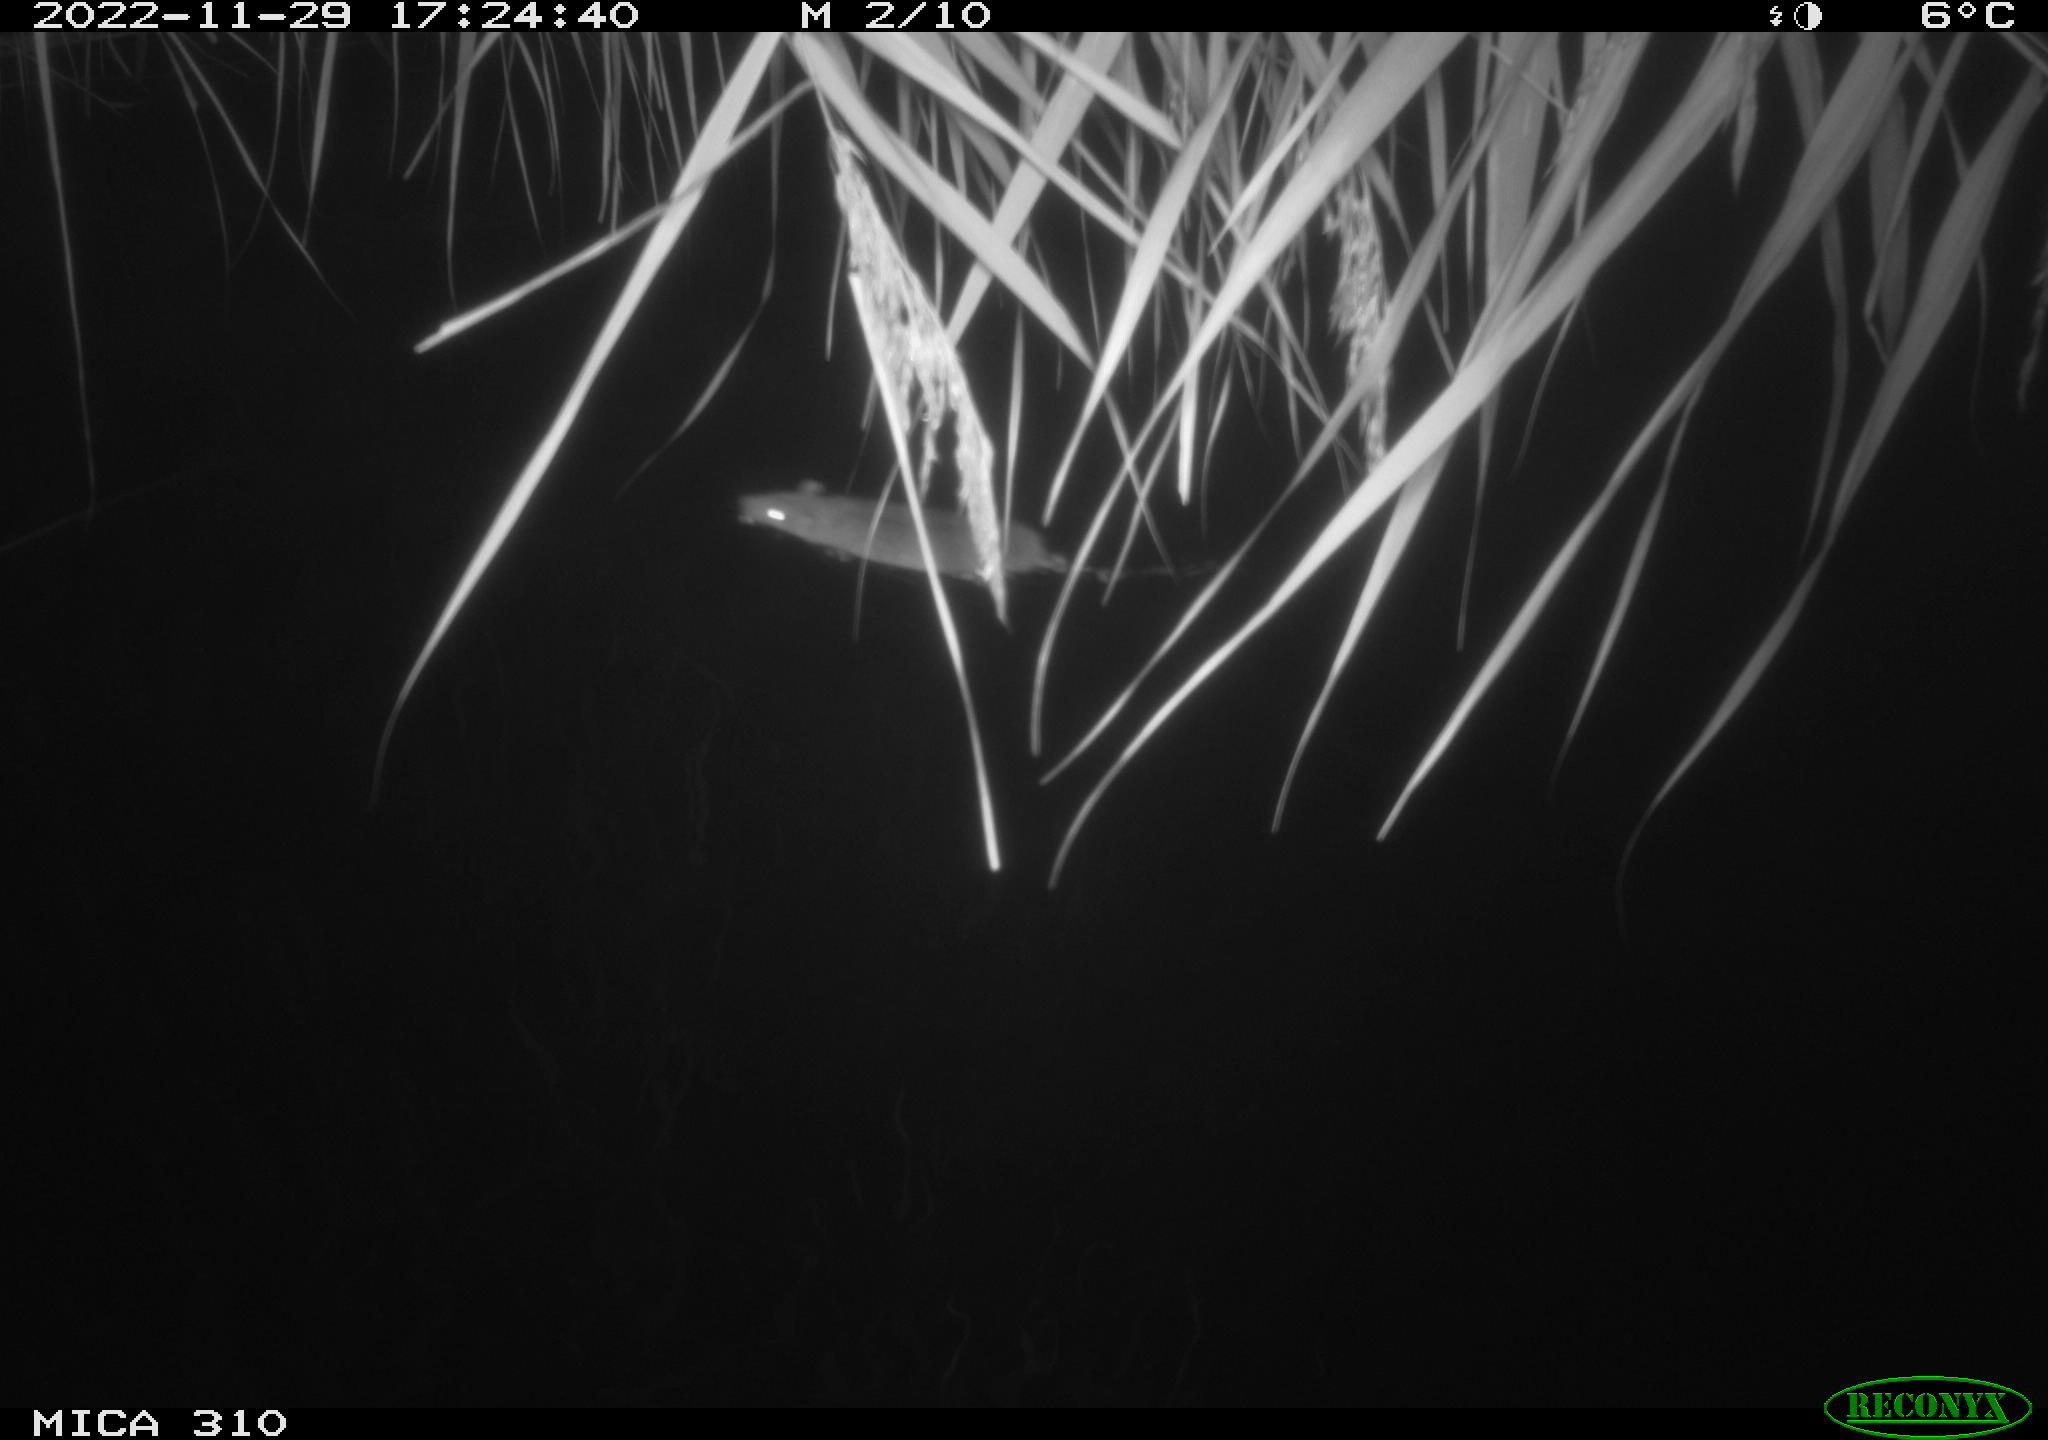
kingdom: Animalia
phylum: Chordata
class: Mammalia
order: Rodentia
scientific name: Rodentia
